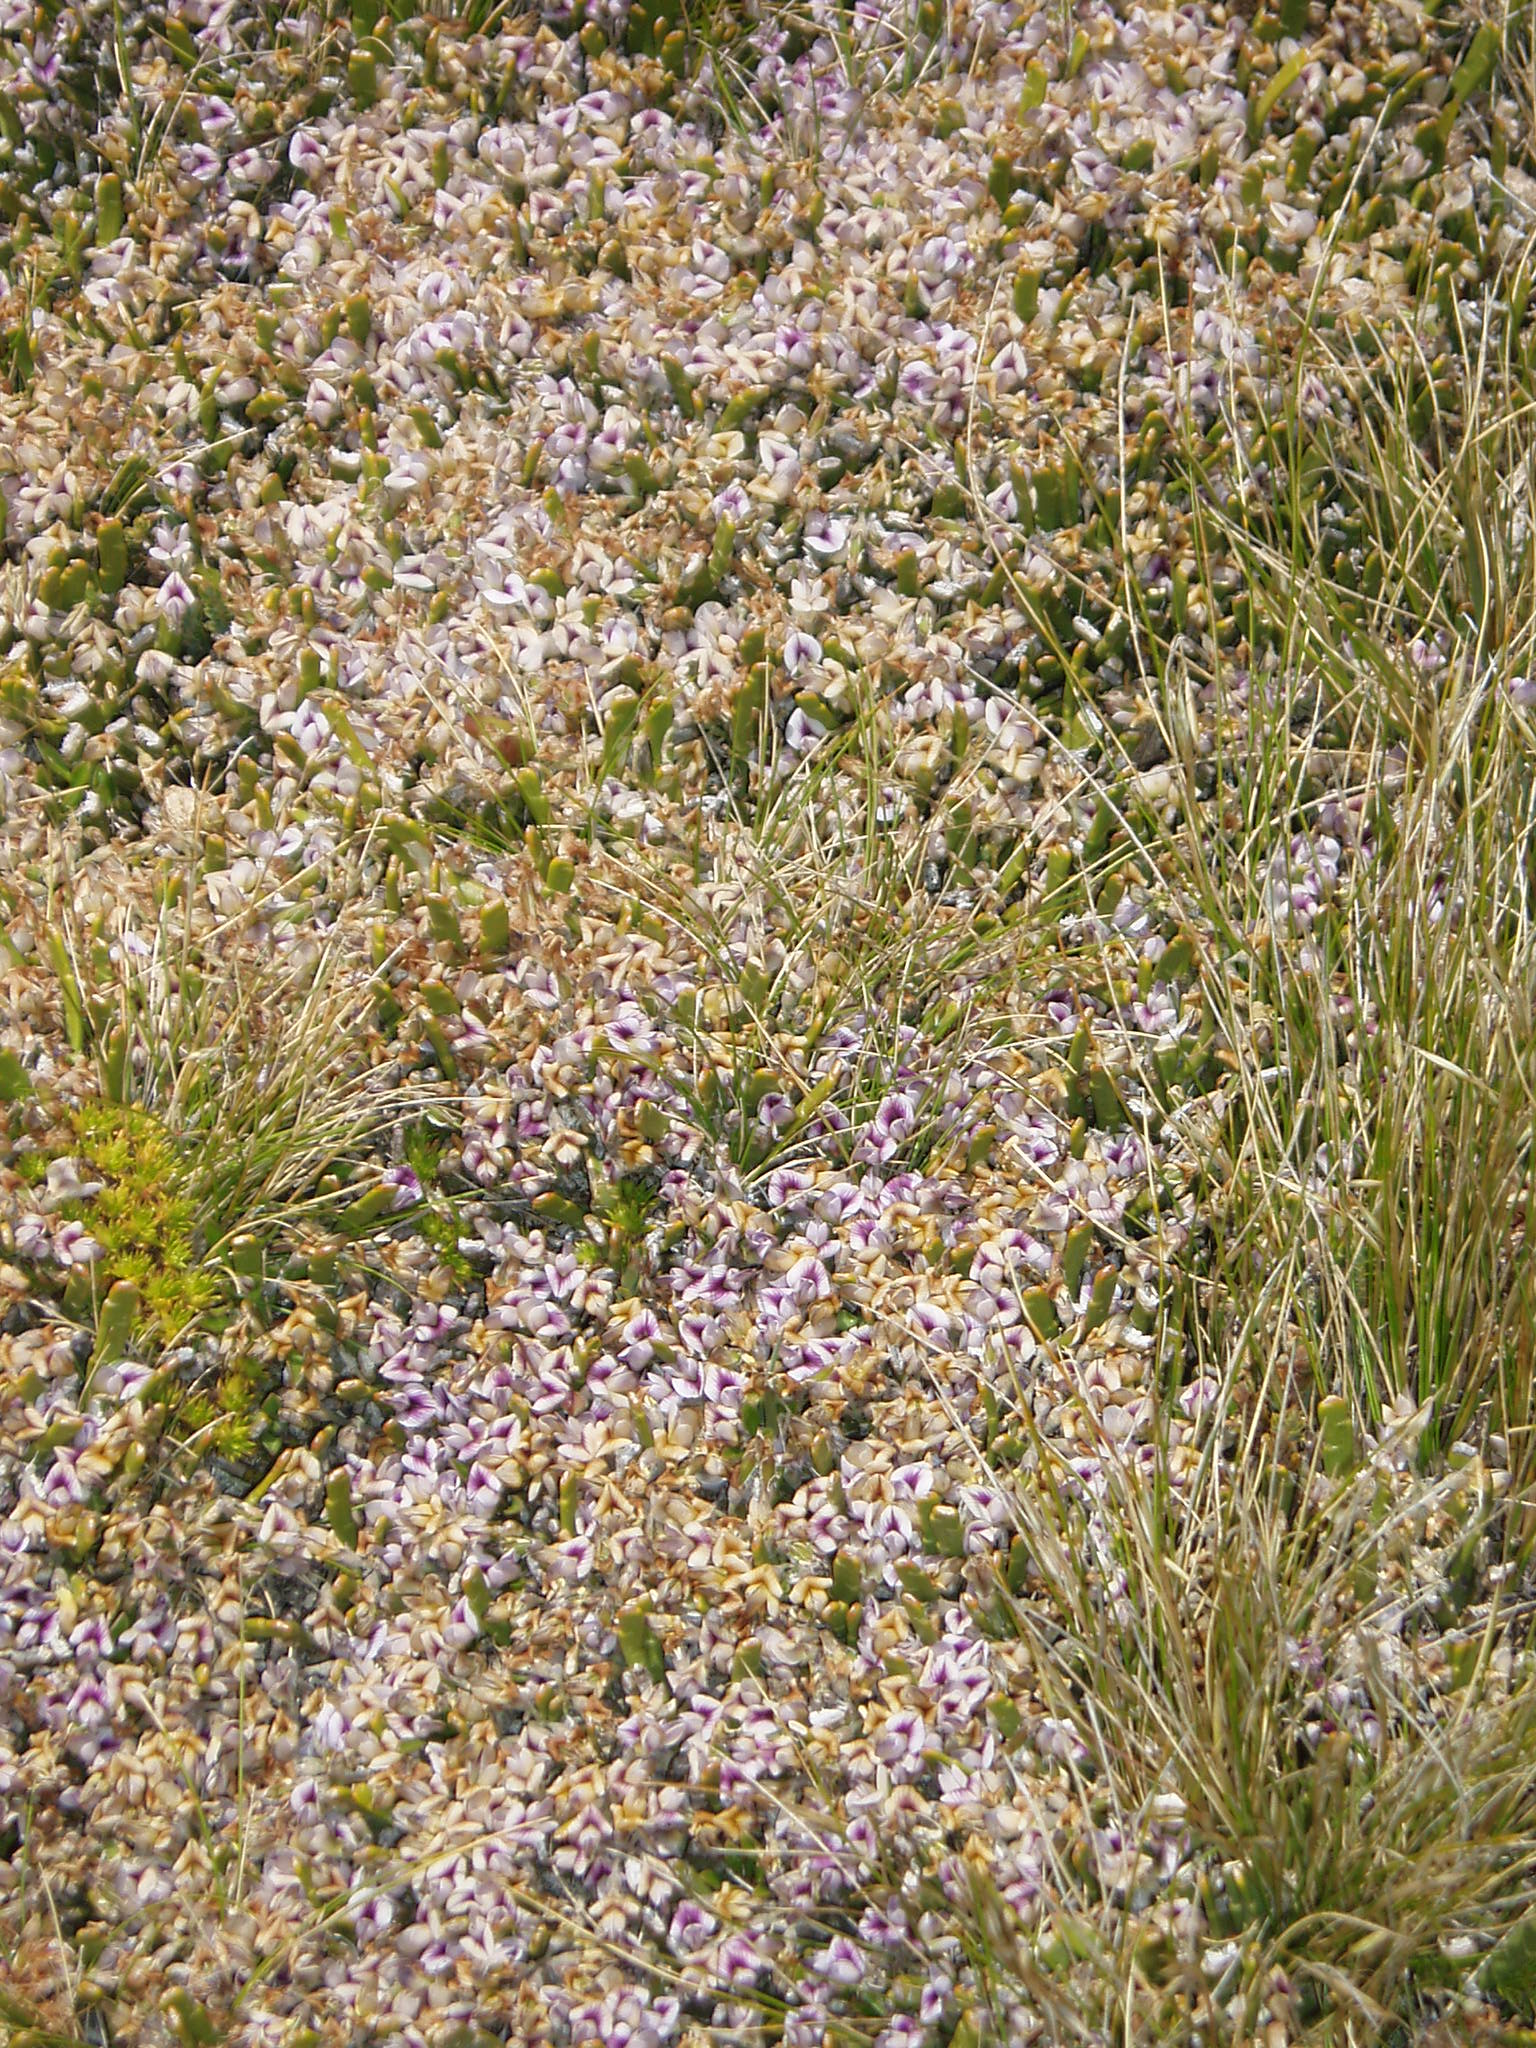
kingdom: Plantae
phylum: Tracheophyta
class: Magnoliopsida
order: Fabales
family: Fabaceae
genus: Carmichaelia
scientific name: Carmichaelia monroi
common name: Stout dwarf broom
